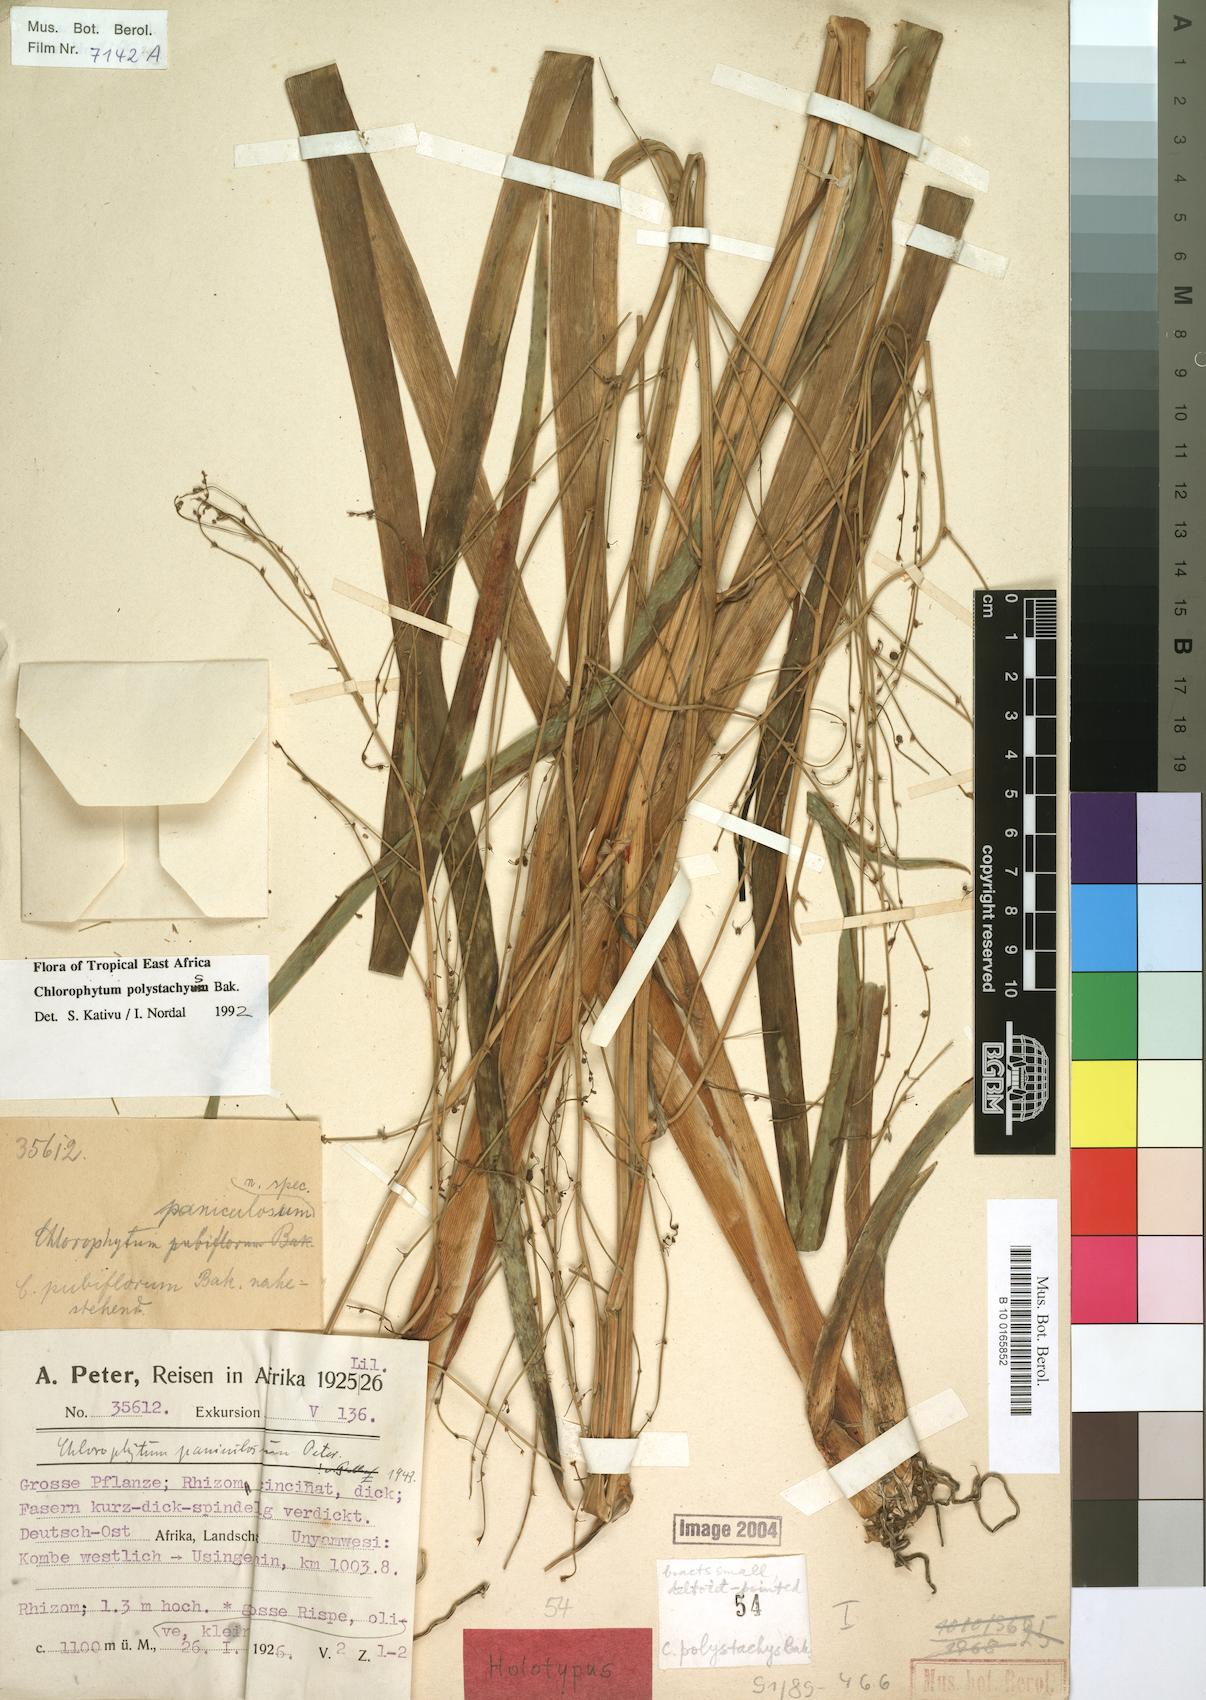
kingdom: Plantae
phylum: Tracheophyta
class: Liliopsida
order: Asparagales
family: Asparagaceae
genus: Chlorophytum
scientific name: Chlorophytum polystachys
